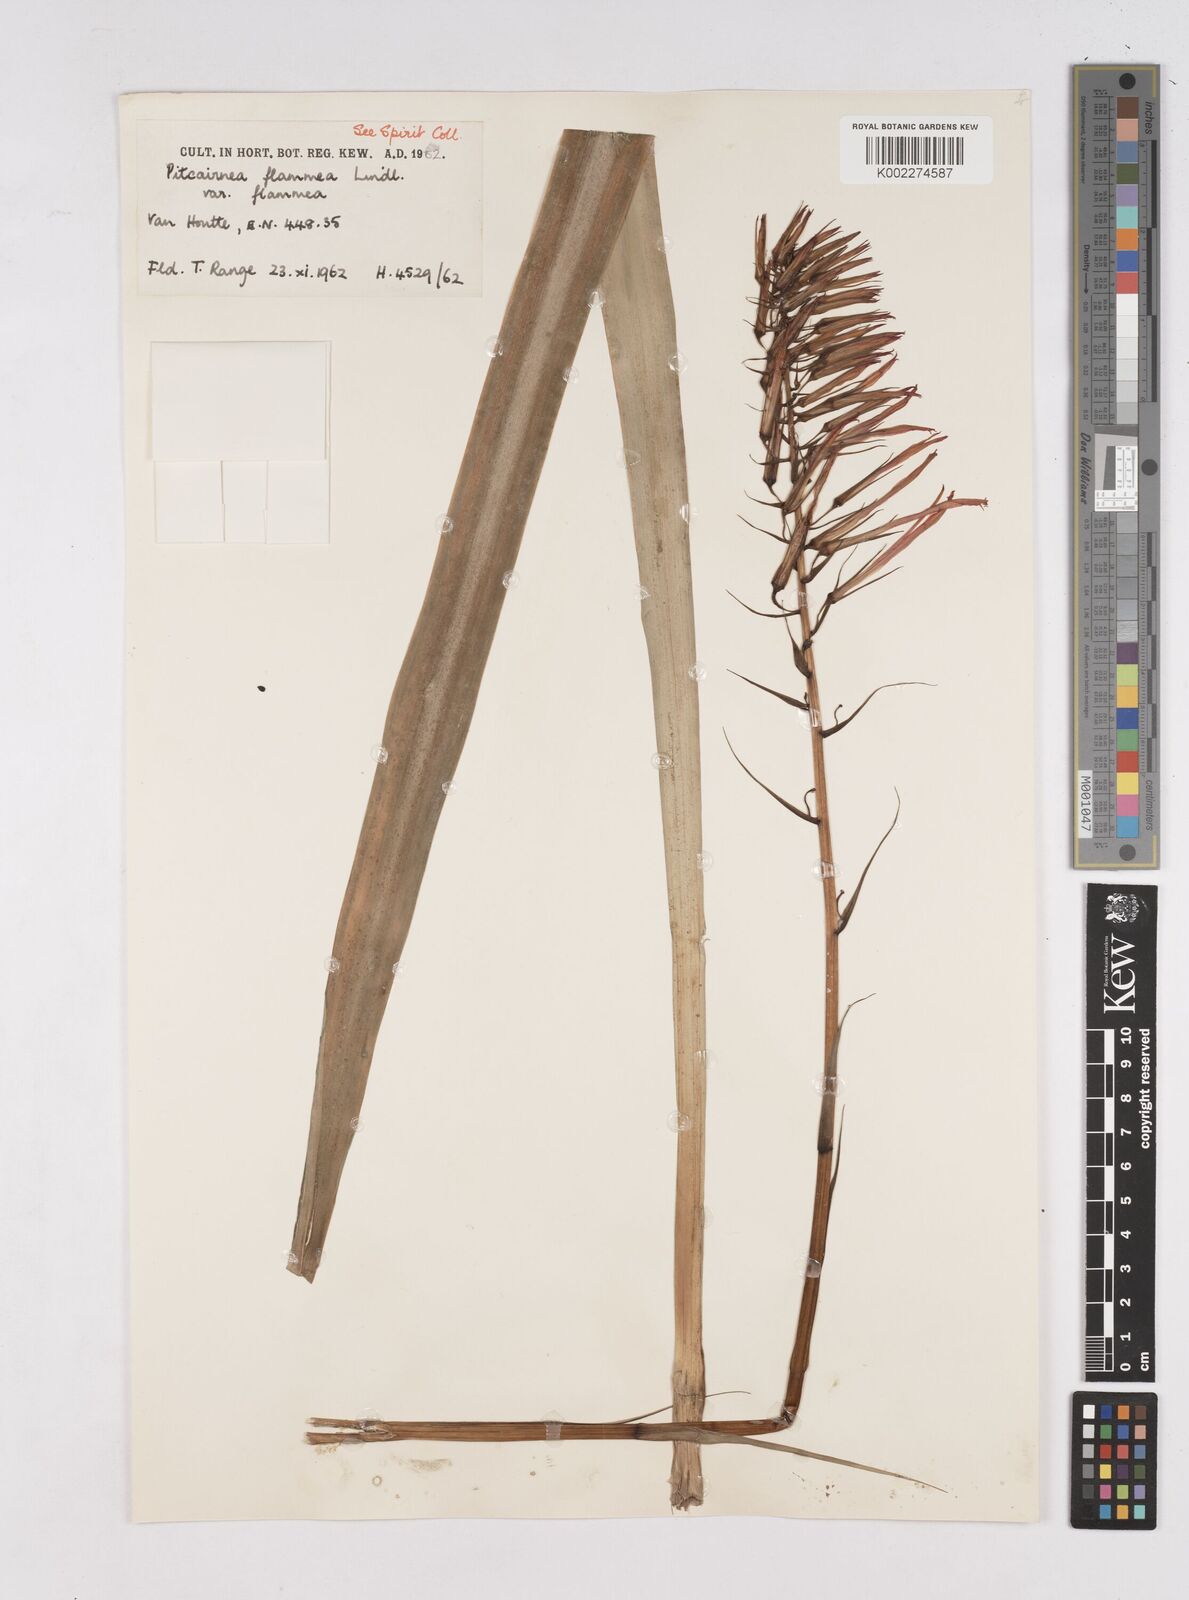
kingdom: Plantae
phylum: Tracheophyta
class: Liliopsida
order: Poales
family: Bromeliaceae
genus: Pitcairnia
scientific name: Pitcairnia flammea
